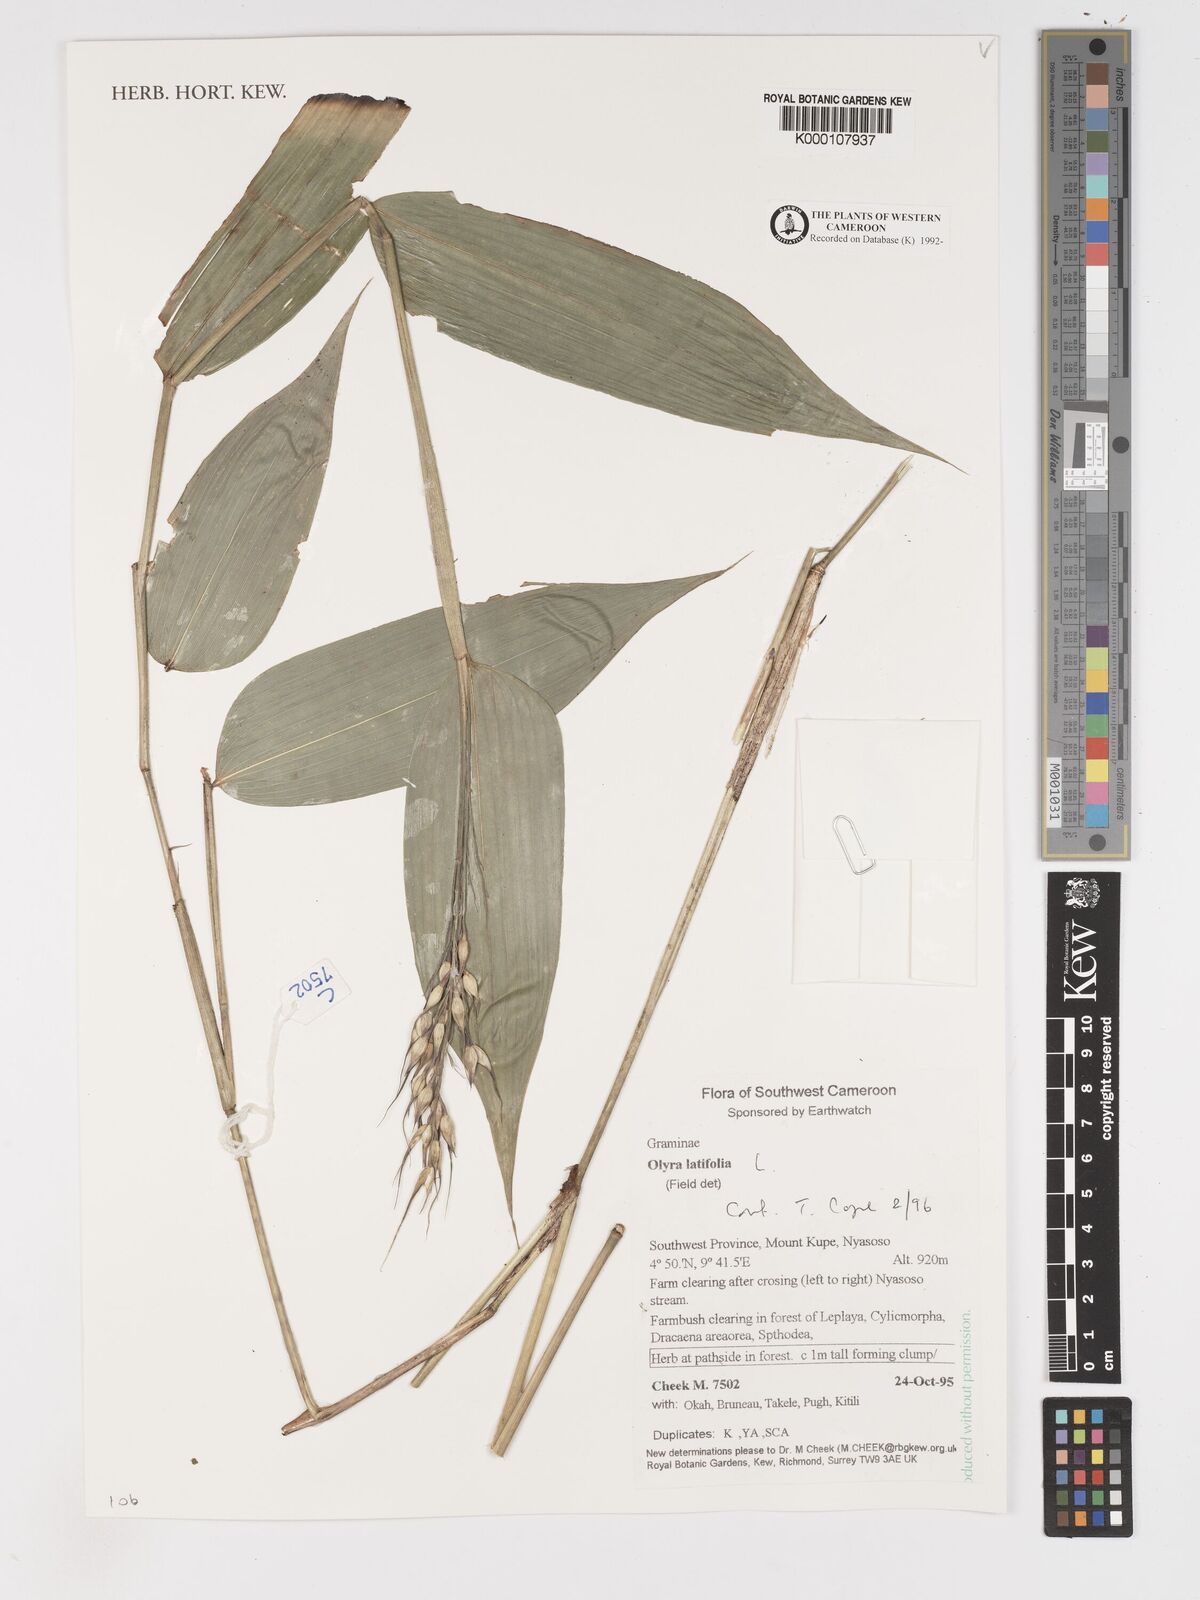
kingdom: Plantae
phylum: Tracheophyta
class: Liliopsida
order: Poales
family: Poaceae
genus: Olyra
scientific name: Olyra latifolia
